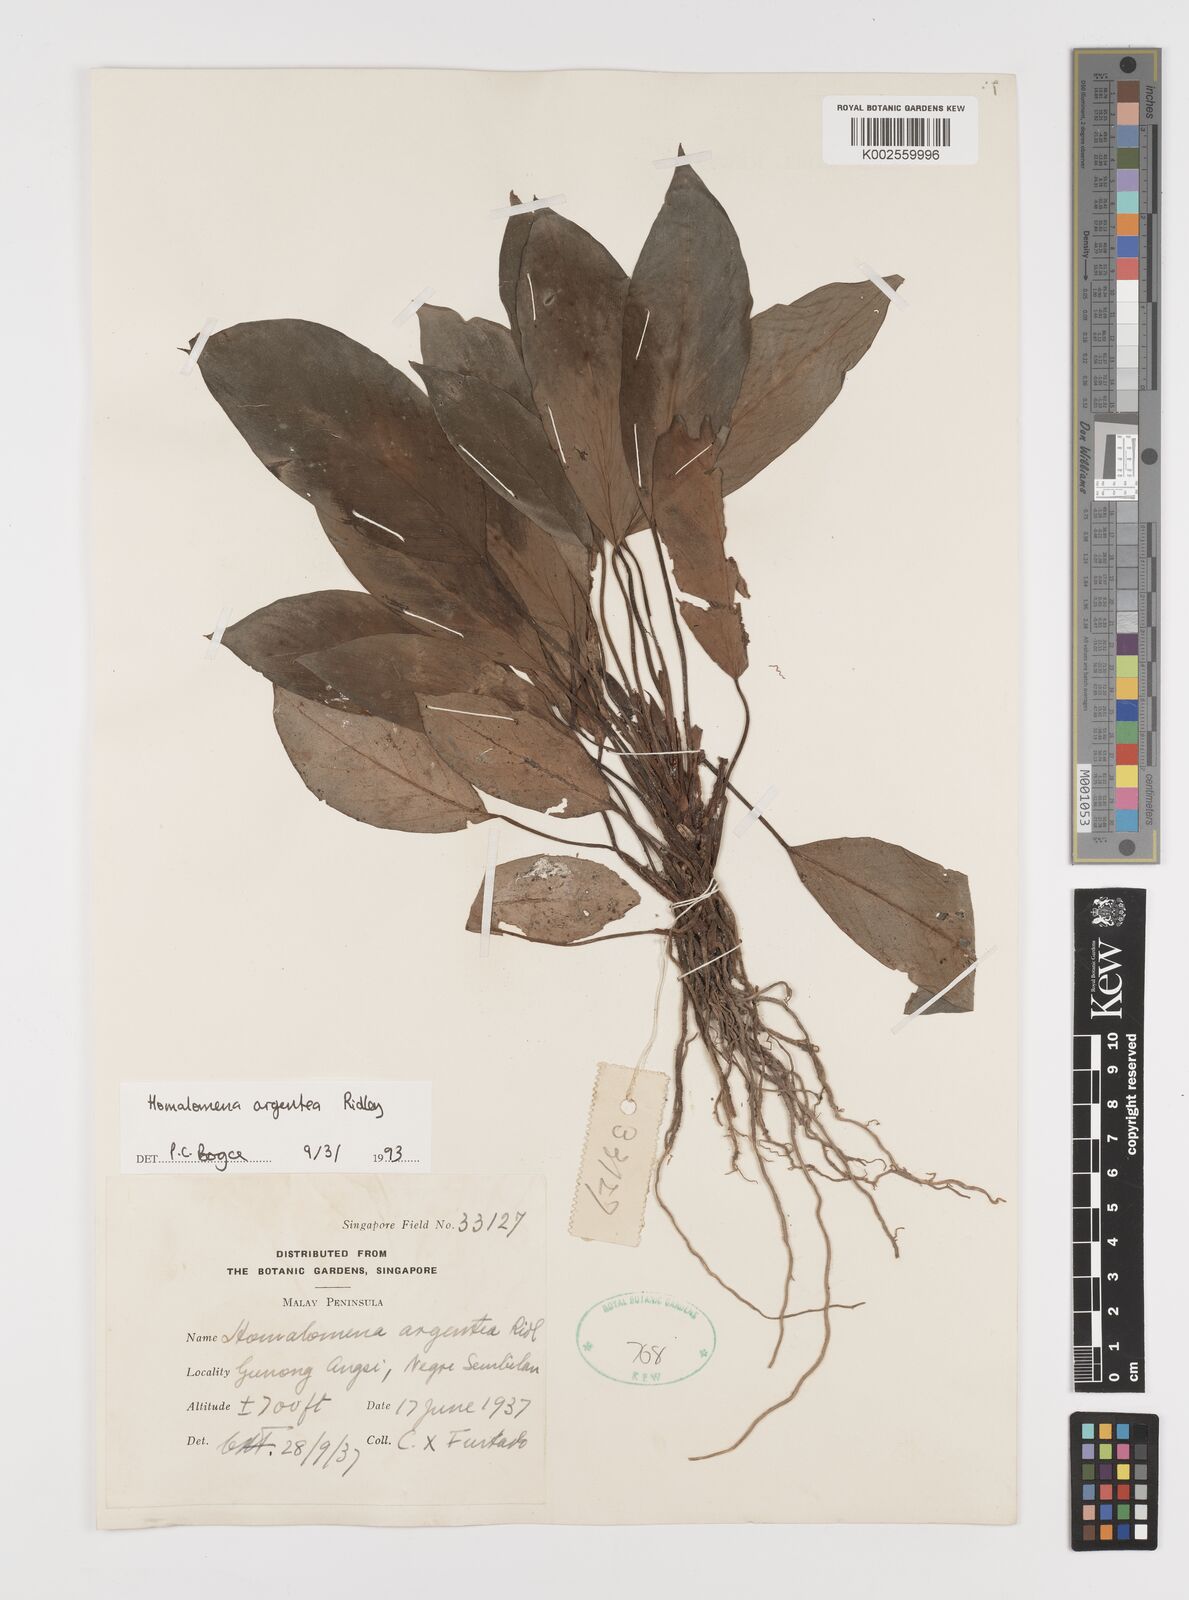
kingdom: Plantae
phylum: Tracheophyta
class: Liliopsida
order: Alismatales
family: Araceae
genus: Homalomena
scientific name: Homalomena argentea
